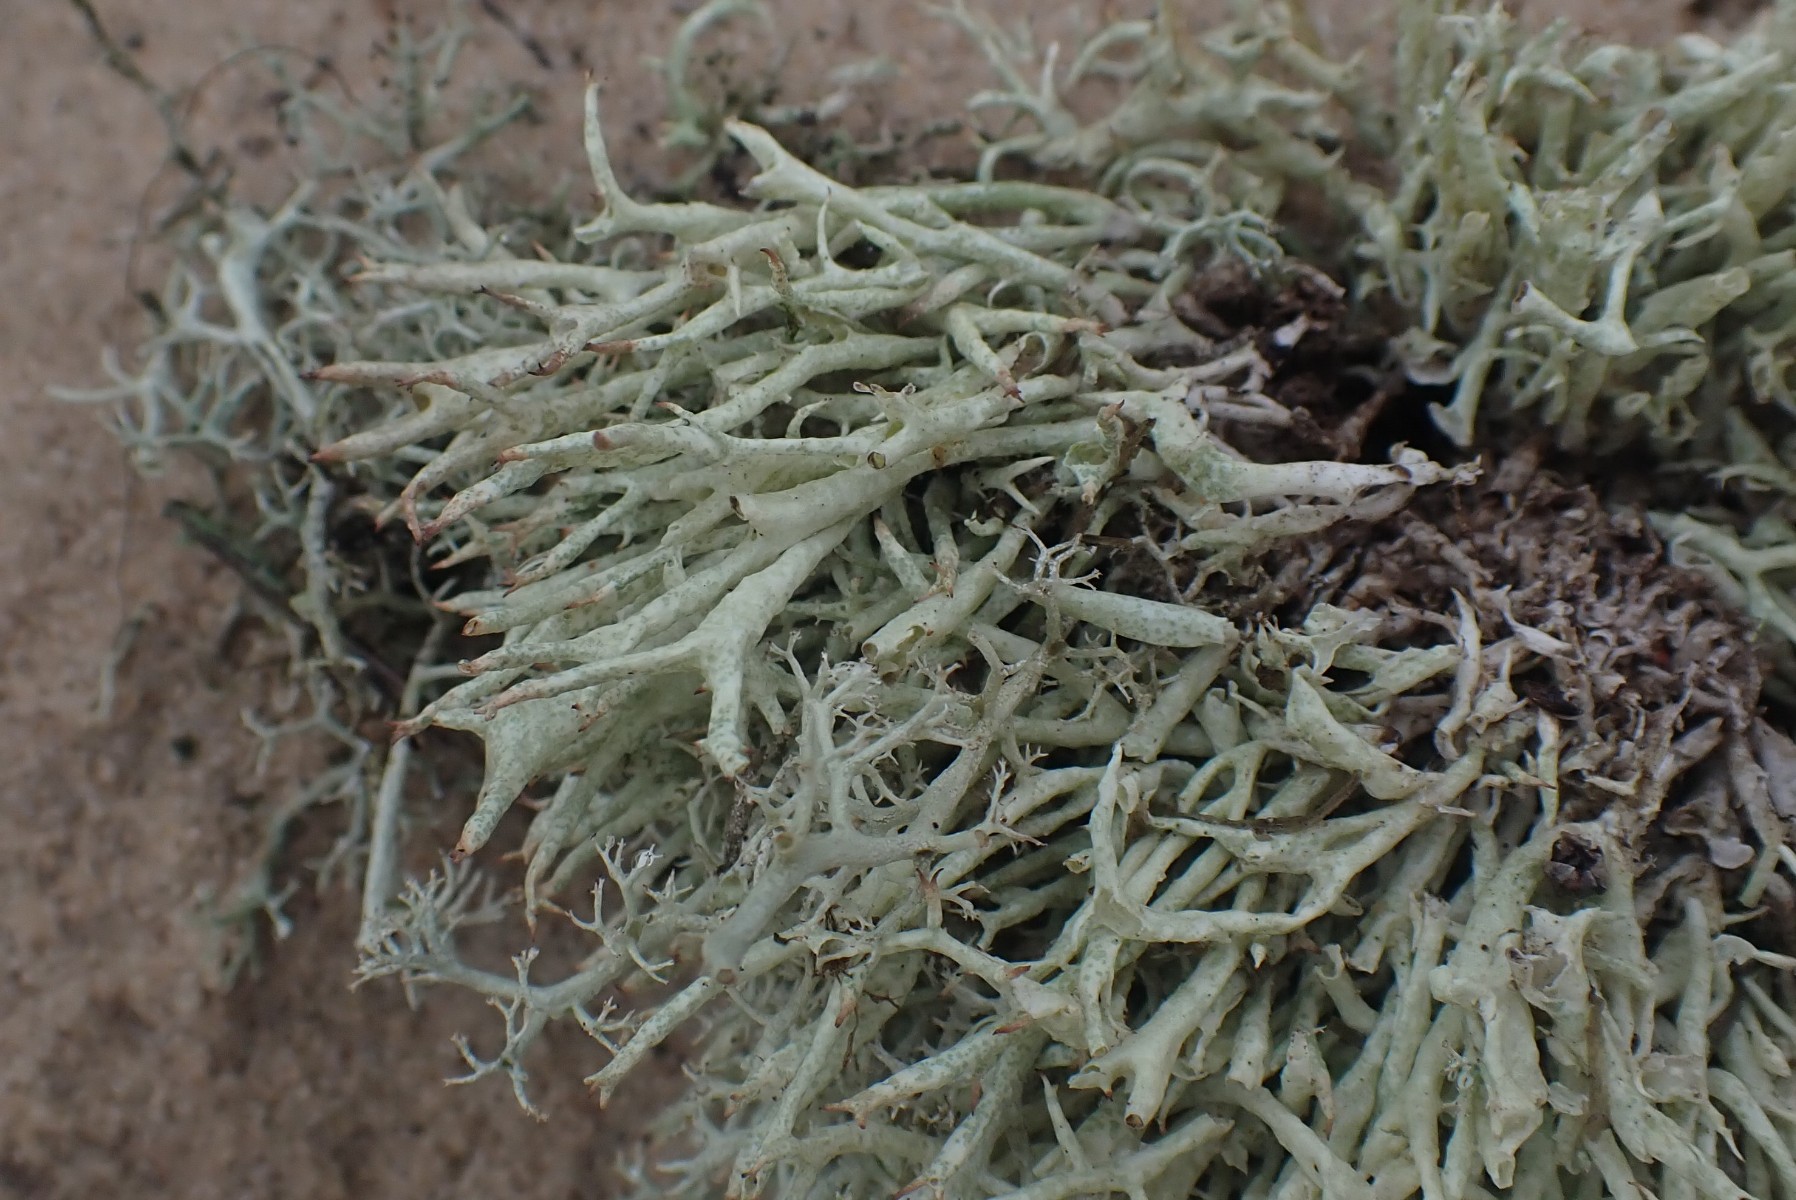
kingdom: Fungi
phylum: Ascomycota
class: Lecanoromycetes
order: Lecanorales
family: Cladoniaceae
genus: Cladonia
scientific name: Cladonia uncialis
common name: pigget bægerlav
